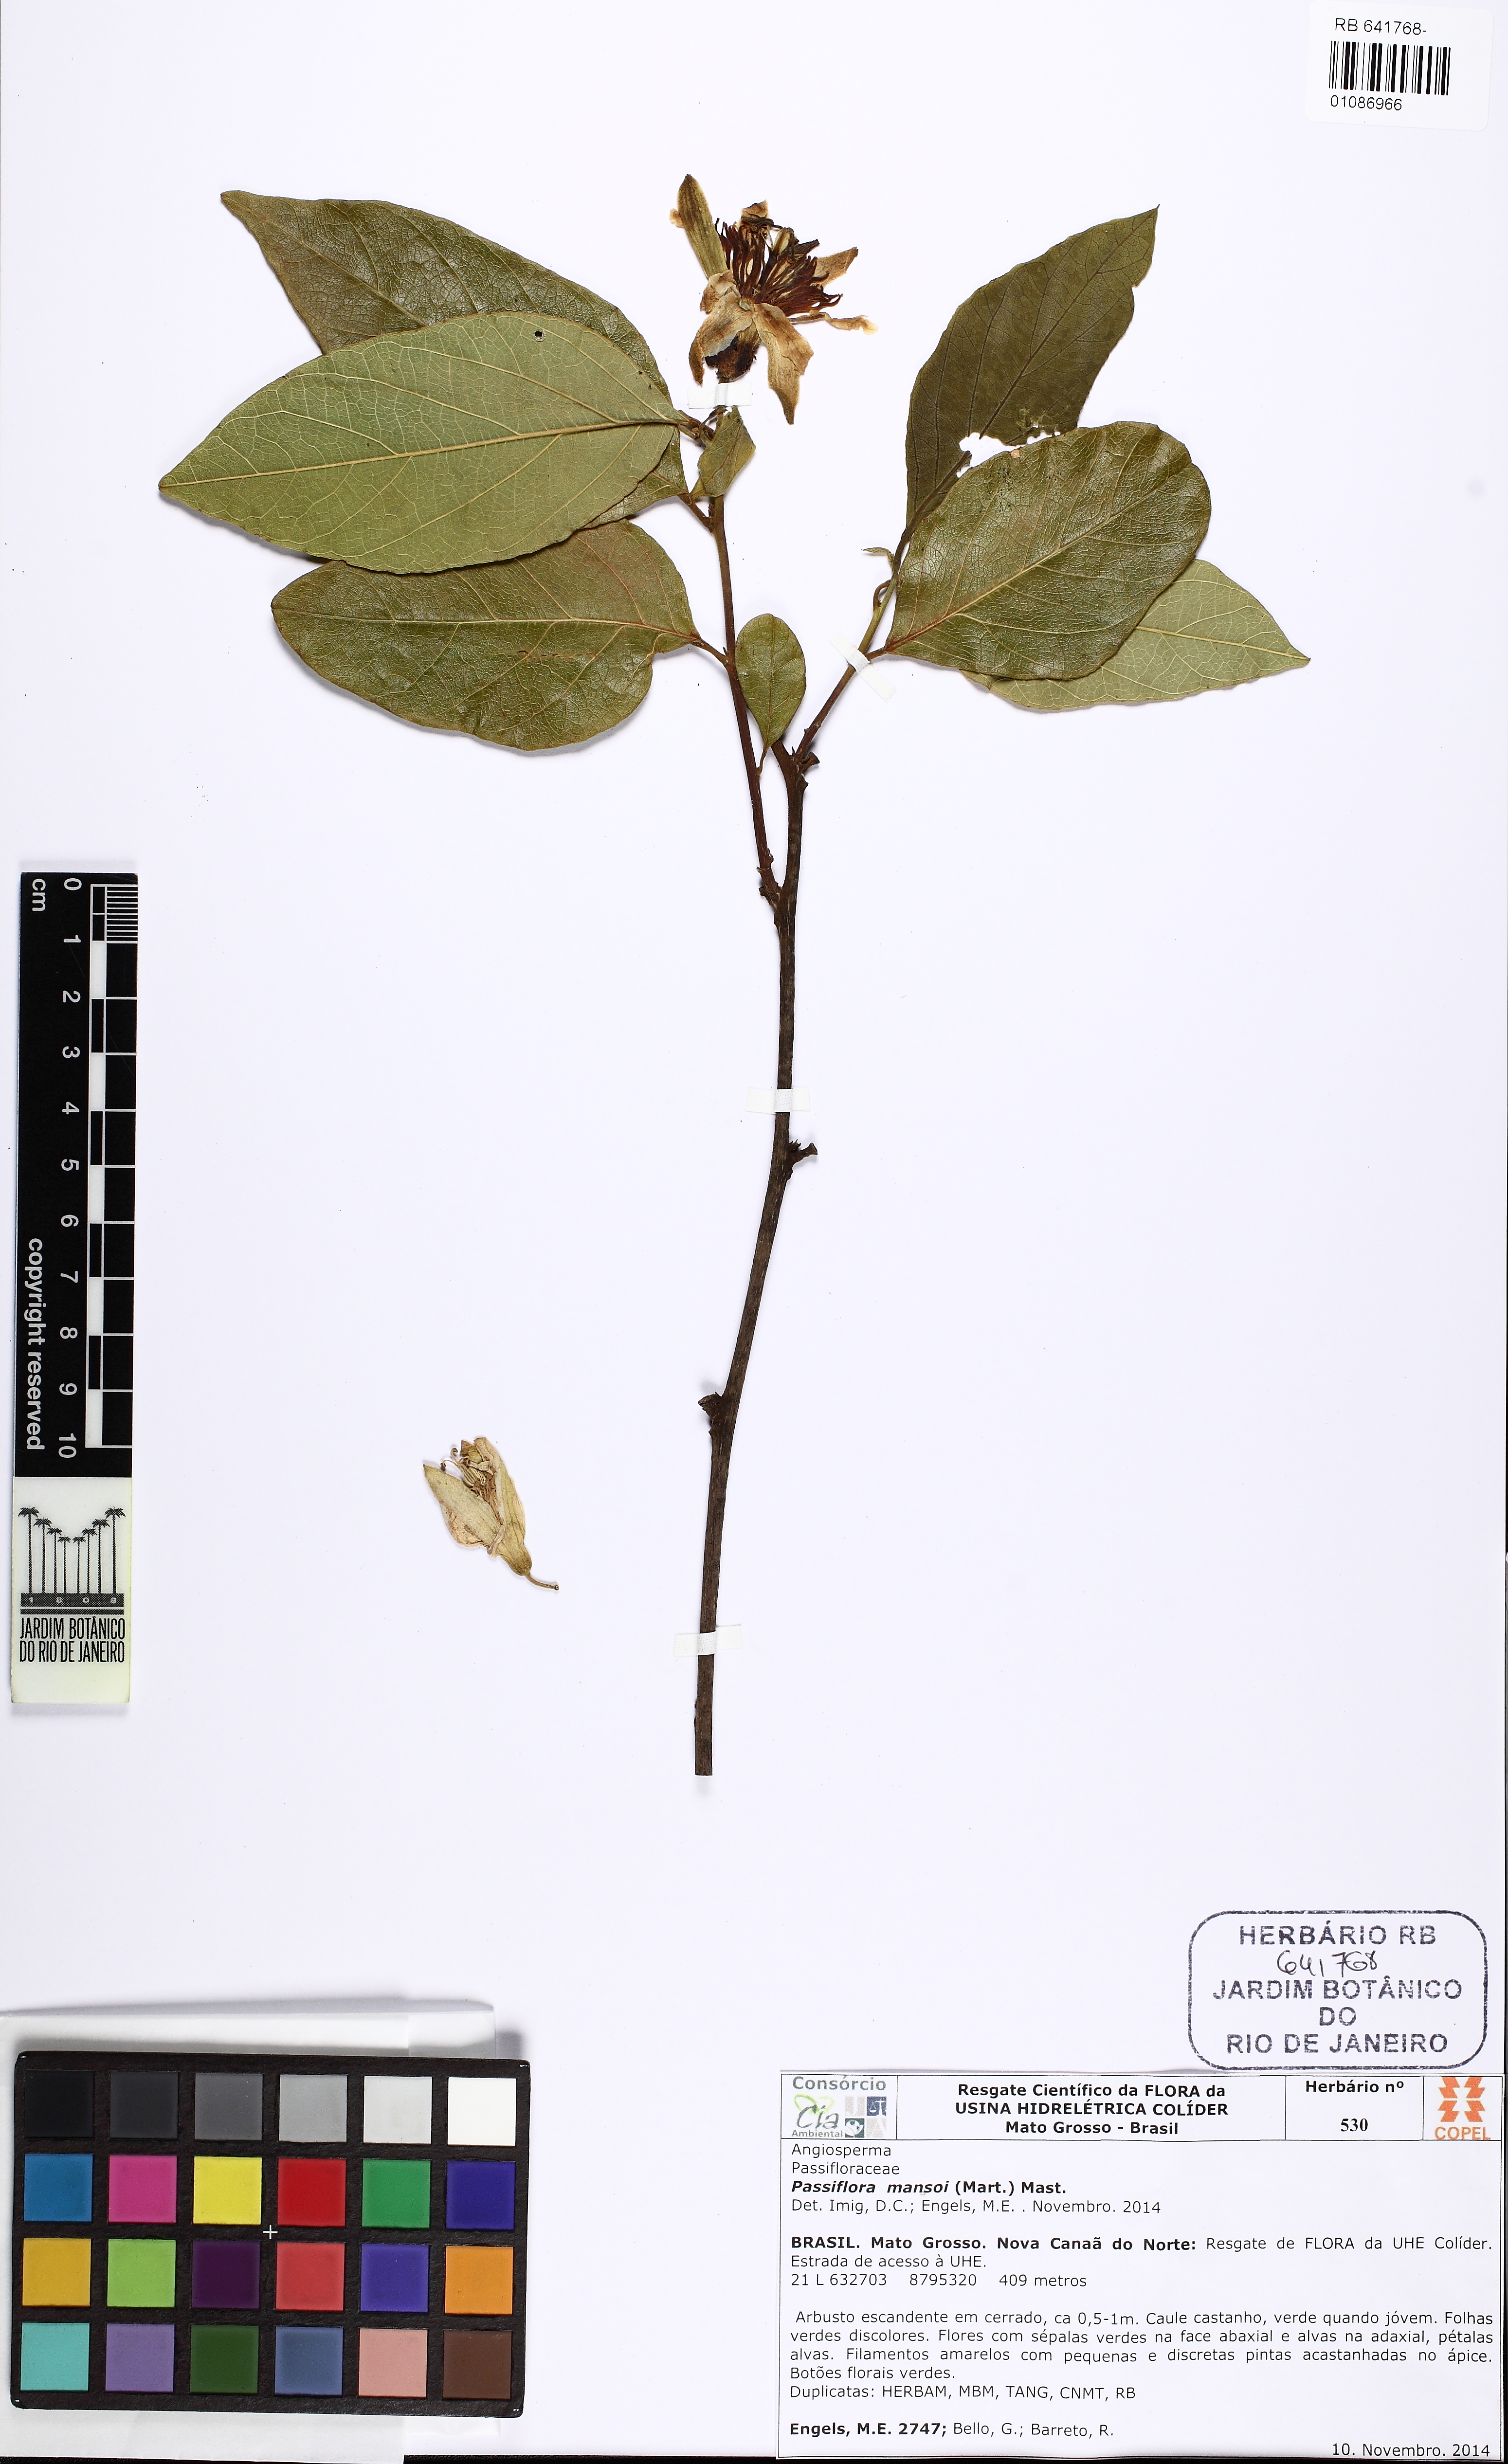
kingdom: Plantae
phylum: Tracheophyta
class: Magnoliopsida
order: Malpighiales
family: Passifloraceae
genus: Passiflora
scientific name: Passiflora mansoi
